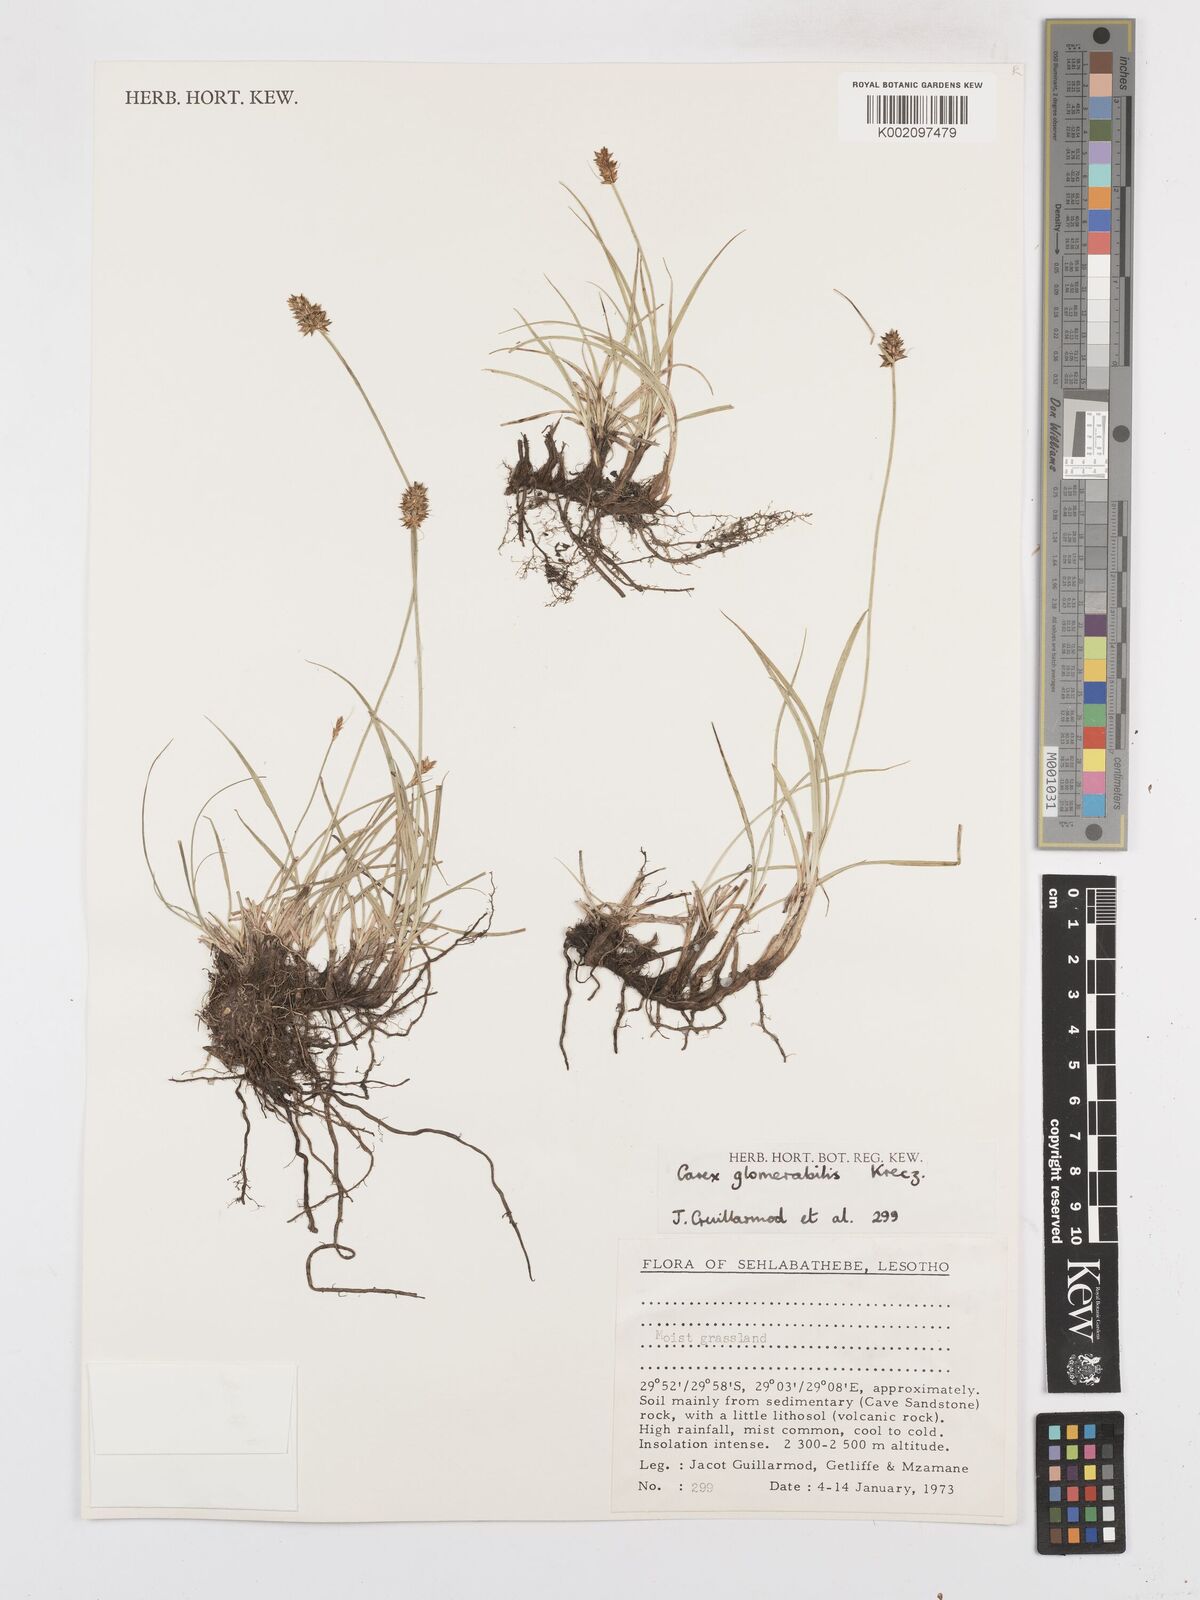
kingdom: Plantae
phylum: Tracheophyta
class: Liliopsida
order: Poales
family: Cyperaceae
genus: Carex
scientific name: Carex glomerata
